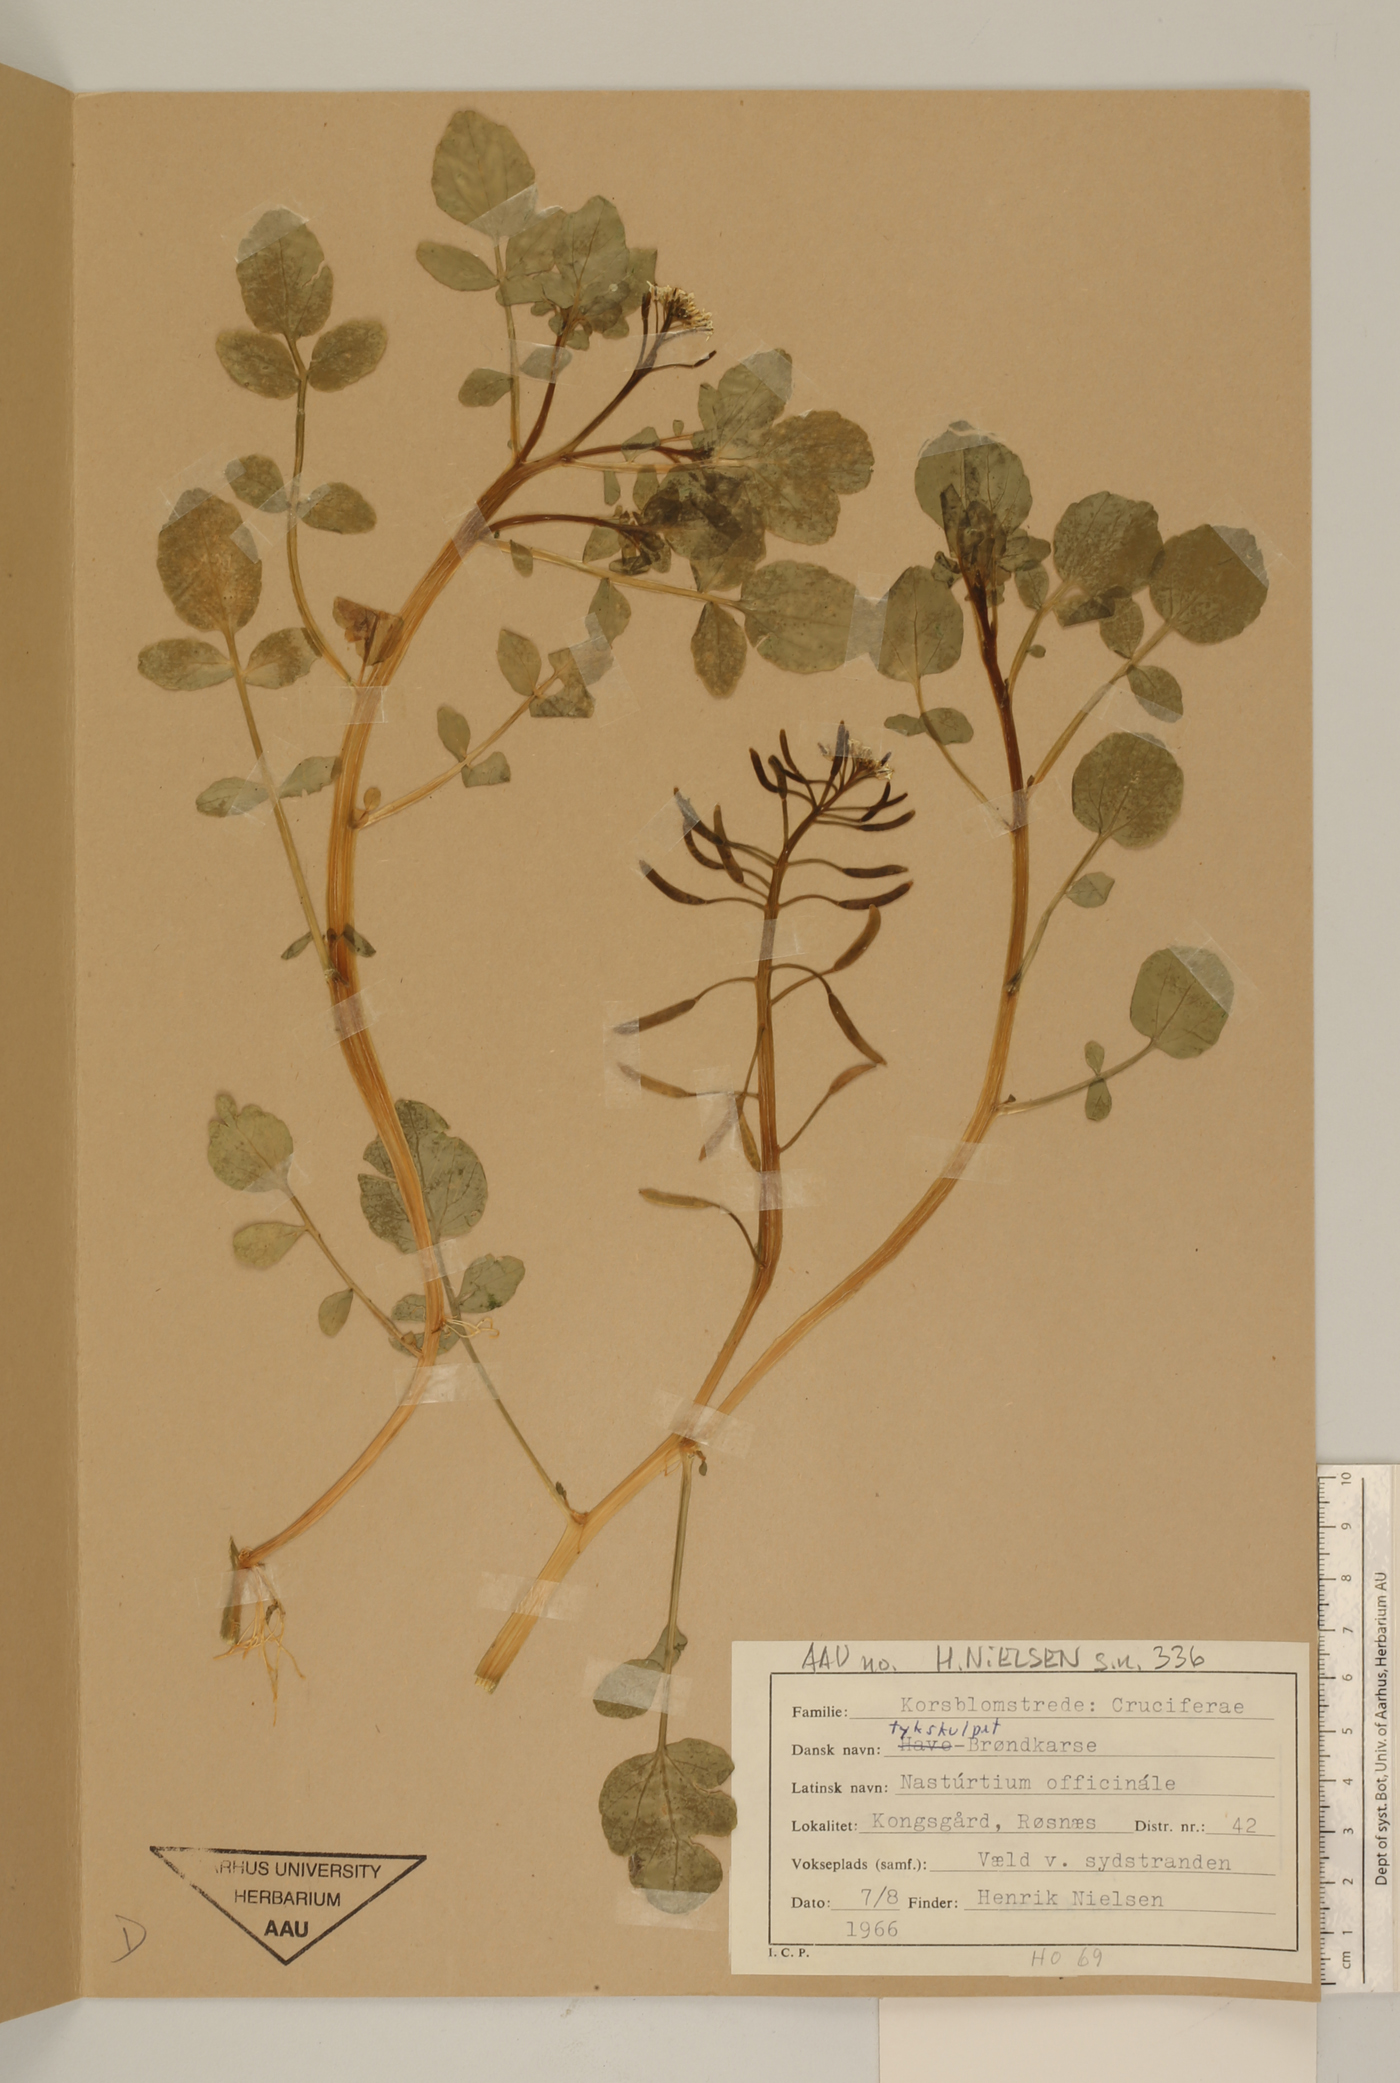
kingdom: Plantae
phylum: Tracheophyta
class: Magnoliopsida
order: Brassicales
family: Brassicaceae
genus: Nasturtium
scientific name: Nasturtium officinale
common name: Watercress
